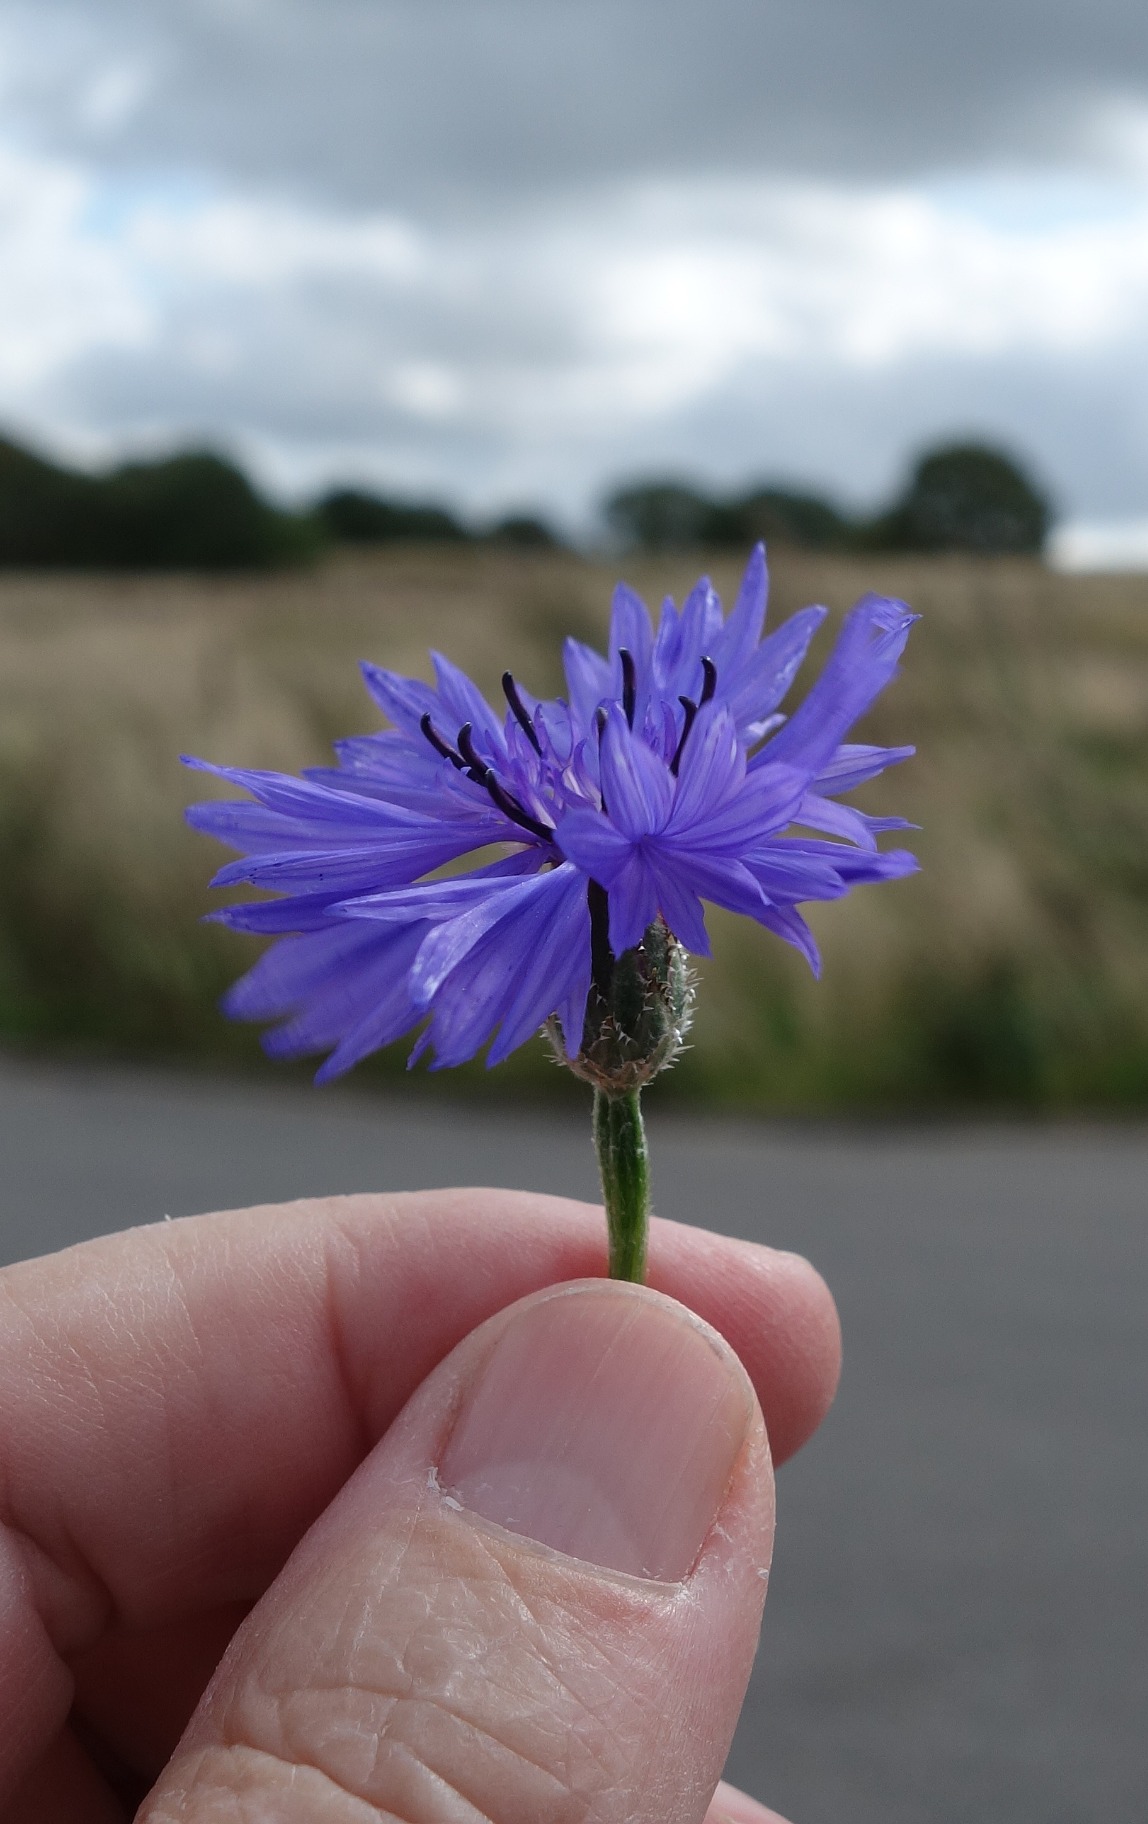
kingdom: Plantae
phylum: Tracheophyta
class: Magnoliopsida
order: Asterales
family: Asteraceae
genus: Centaurea
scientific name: Centaurea cyanus
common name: Kornblomst
